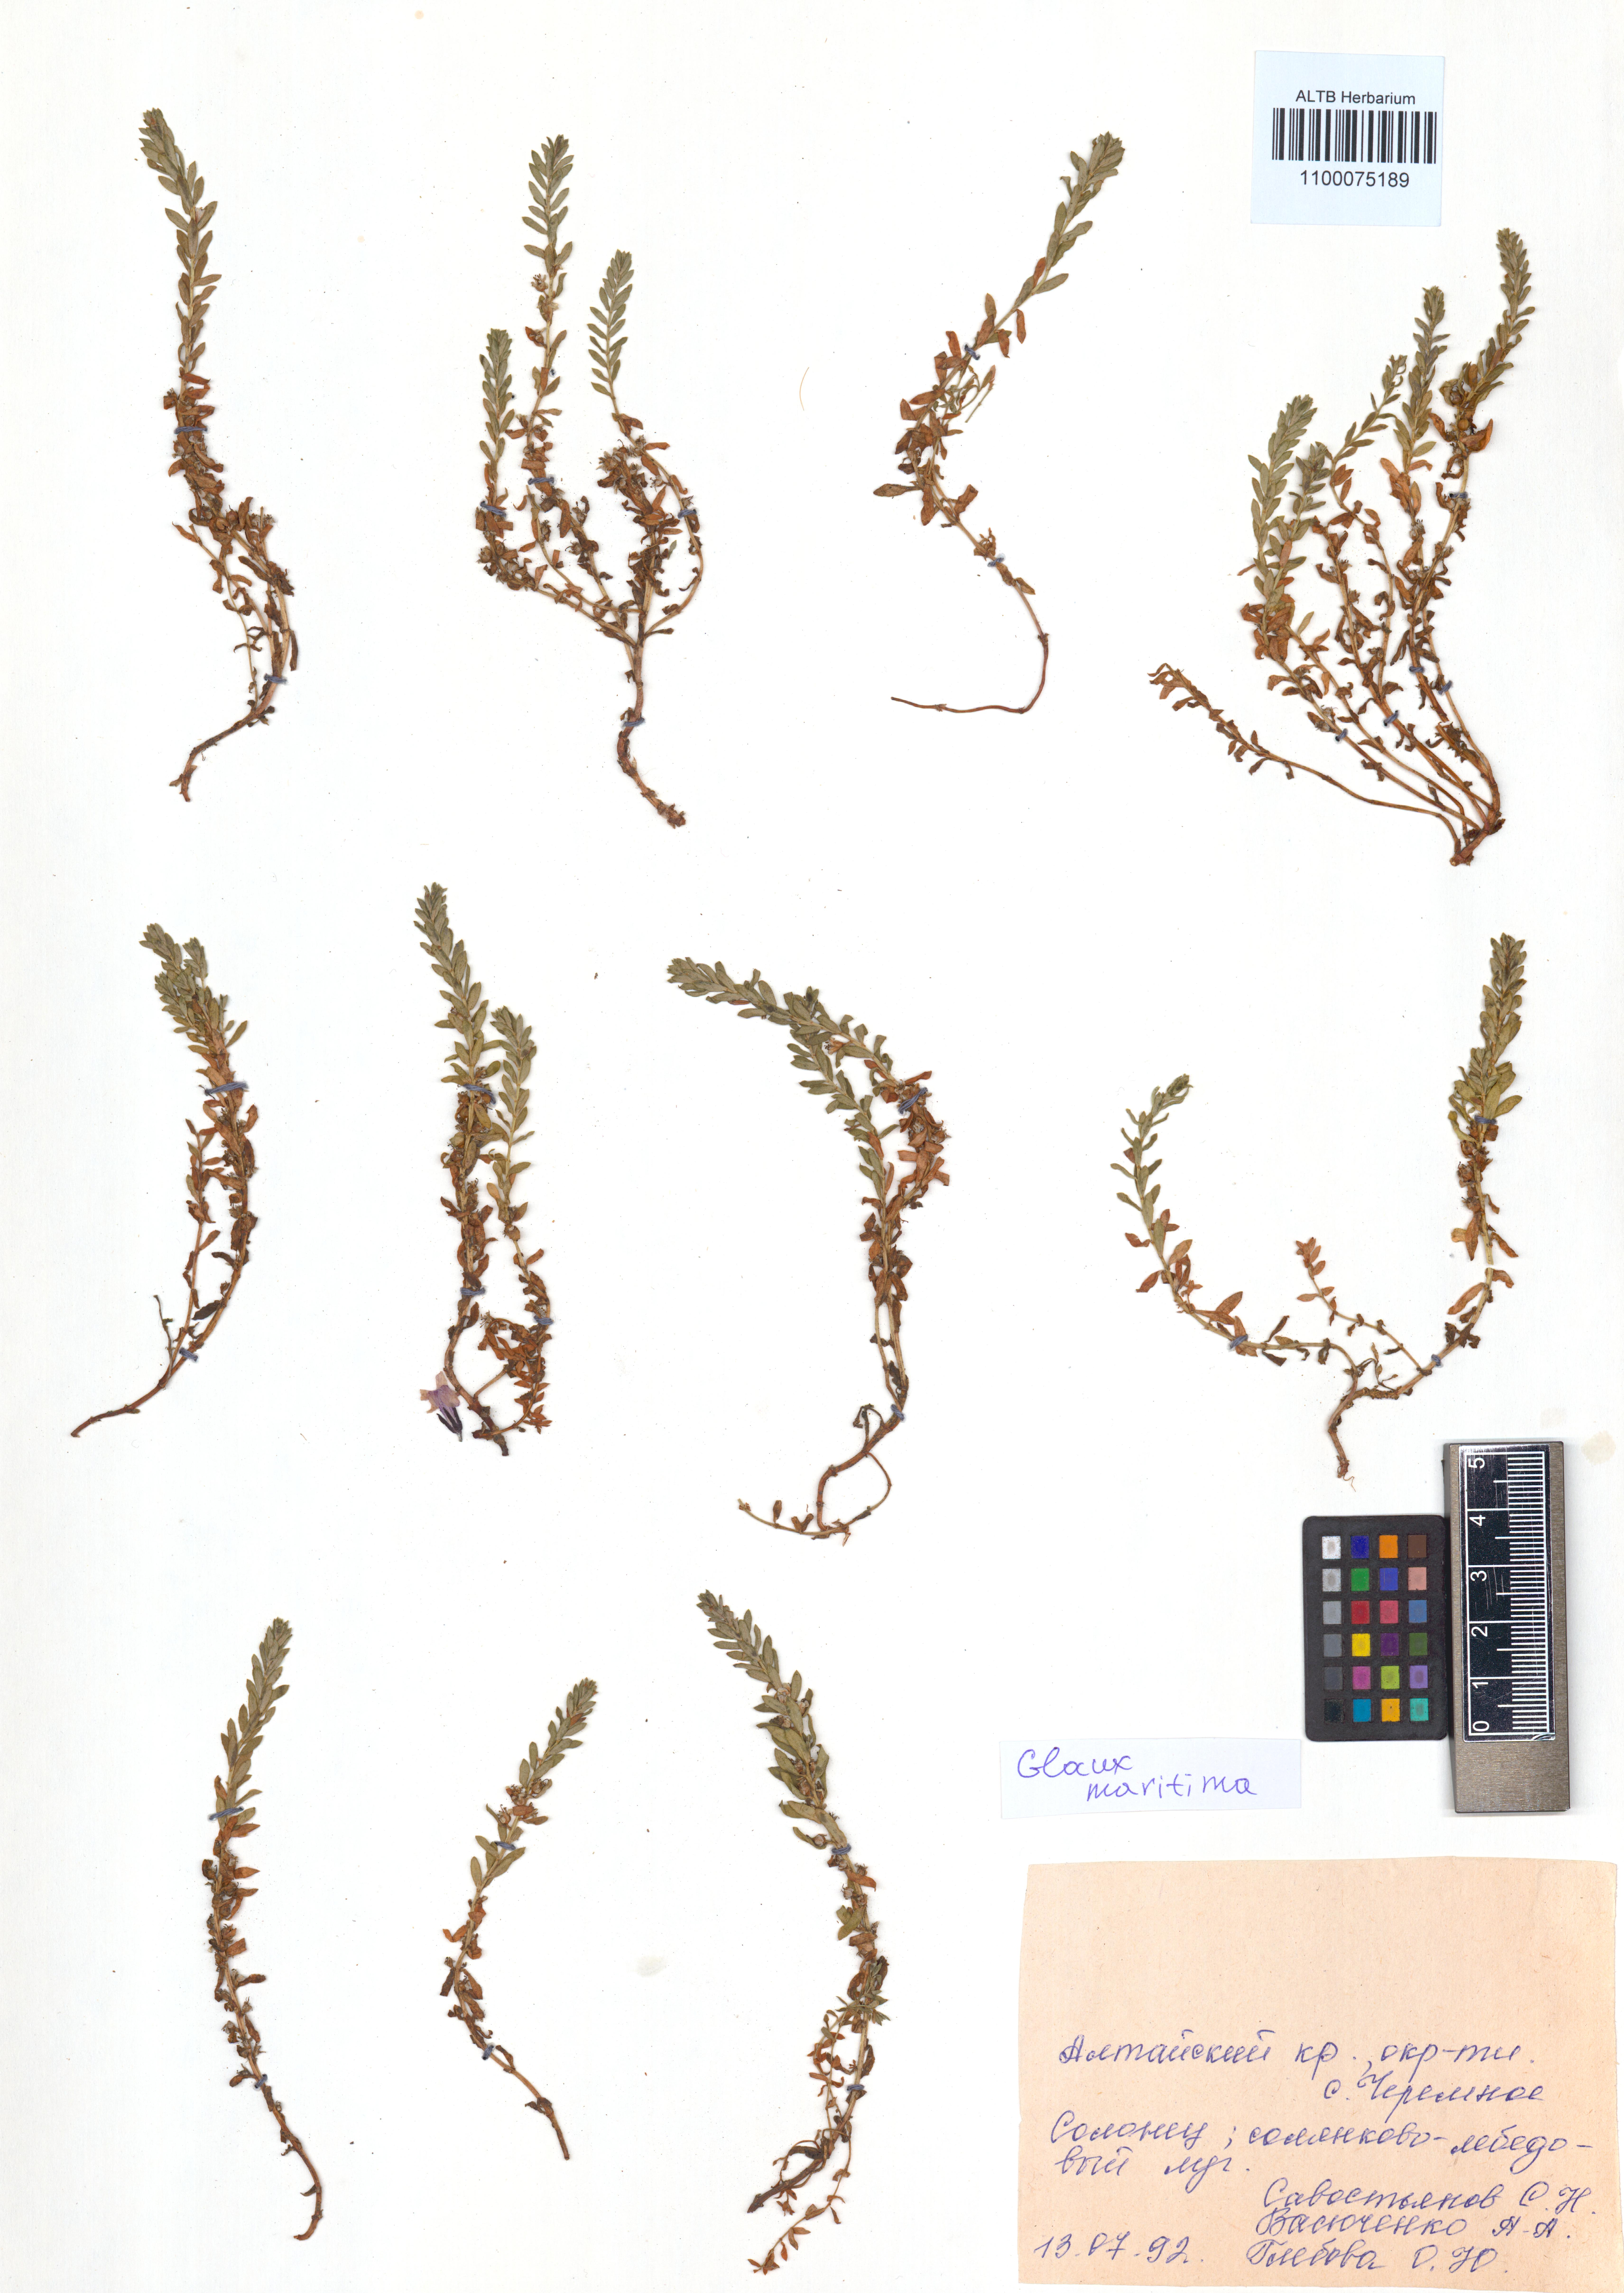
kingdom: Plantae
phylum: Tracheophyta
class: Magnoliopsida
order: Ericales
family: Primulaceae
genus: Lysimachia
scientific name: Lysimachia maritima
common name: Sea milkwort
